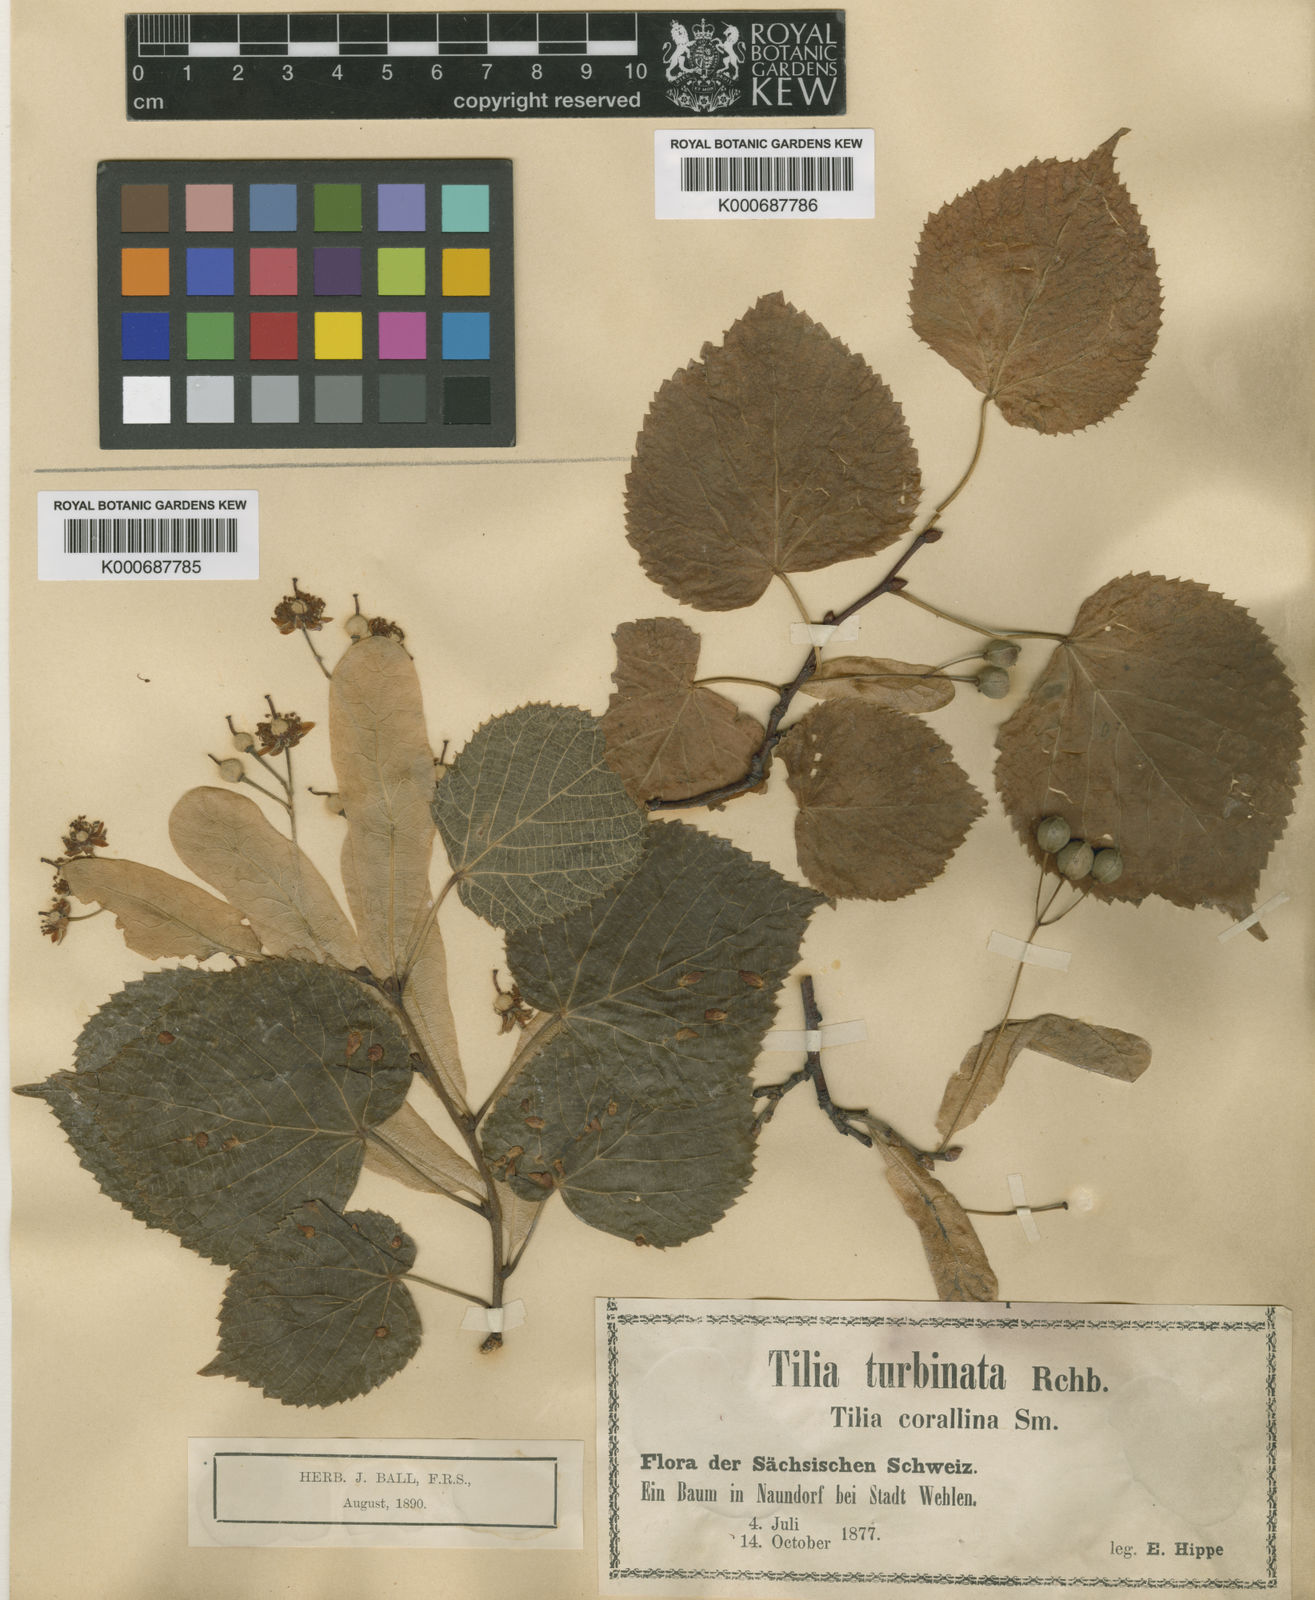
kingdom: Plantae
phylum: Tracheophyta
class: Magnoliopsida
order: Malvales
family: Malvaceae
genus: Tilia
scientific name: Tilia platyphyllos
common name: Large-leaved lime
